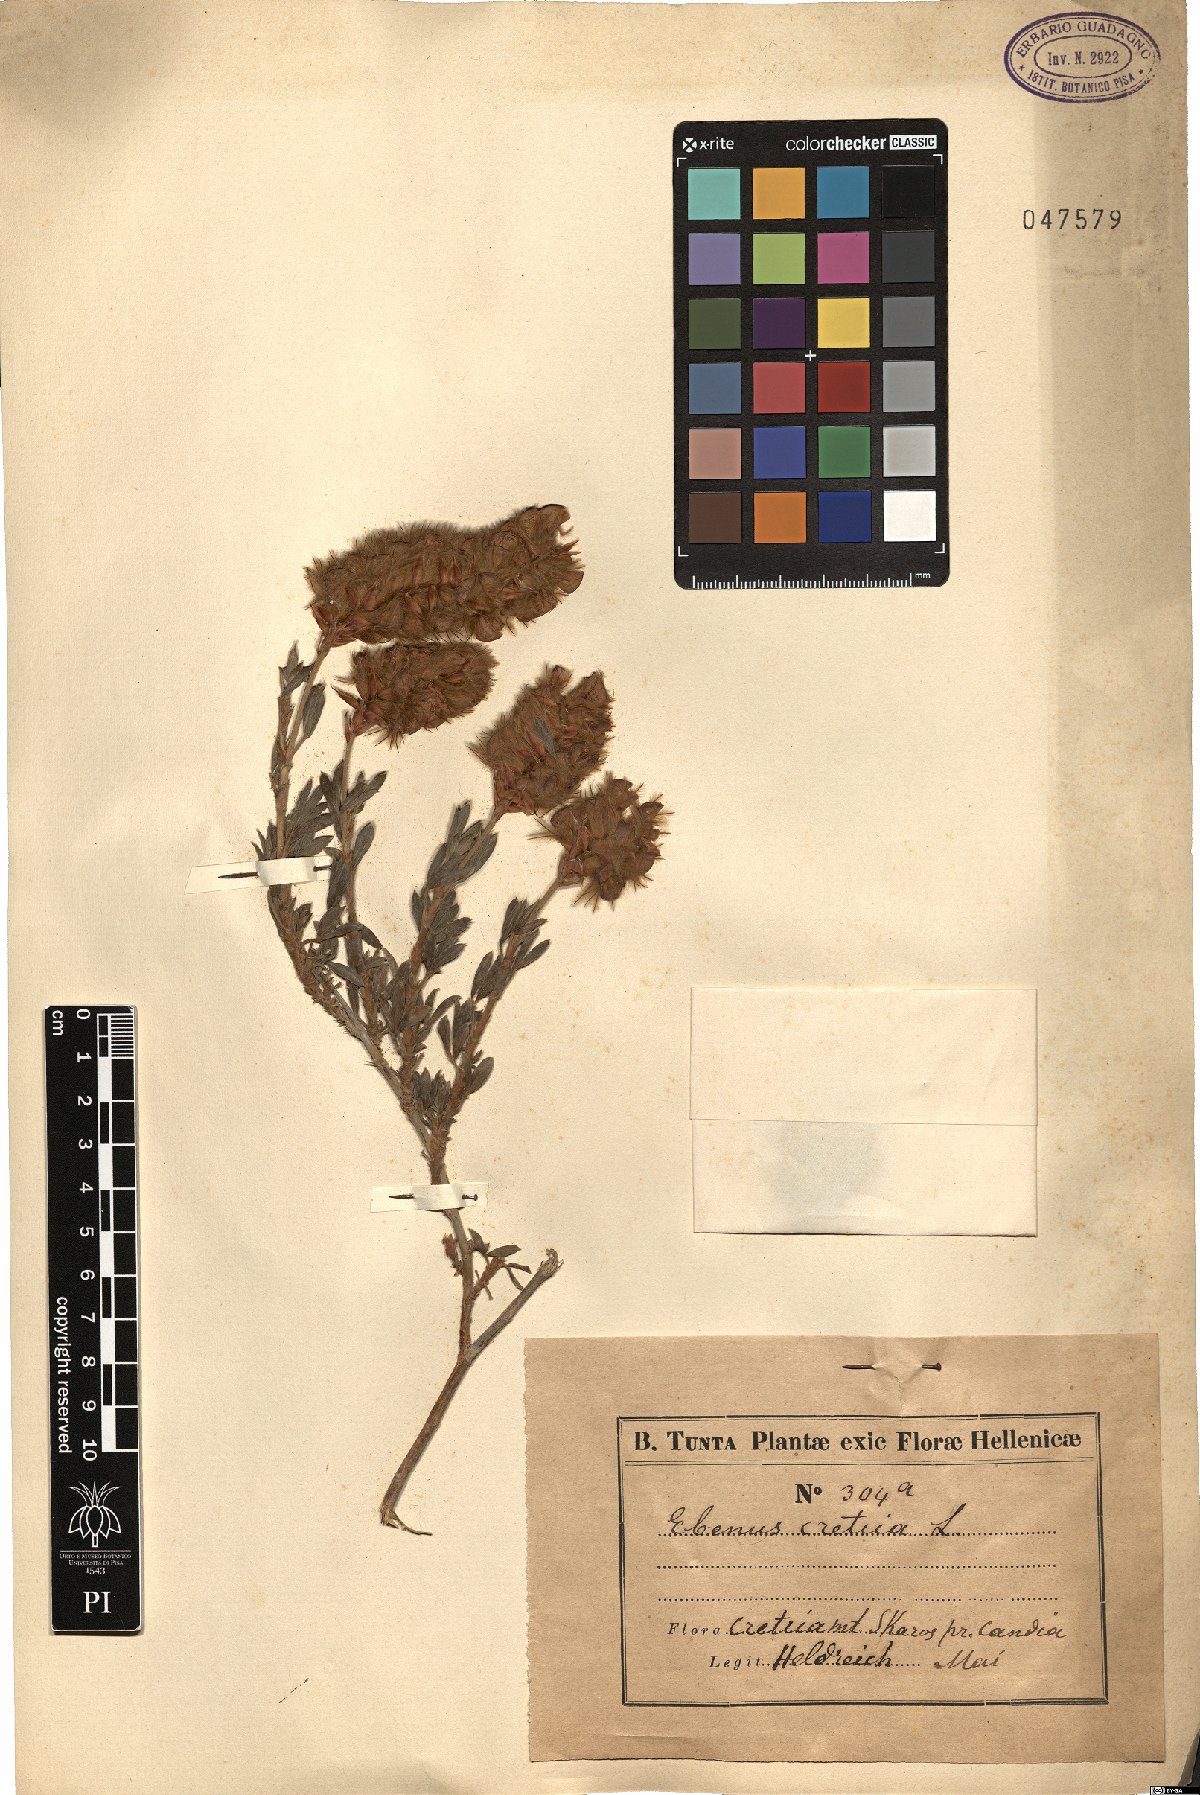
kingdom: Plantae
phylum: Tracheophyta
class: Magnoliopsida
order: Fabales
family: Fabaceae
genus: Ebenus
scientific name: Ebenus cretica
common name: Cretan silver bush
